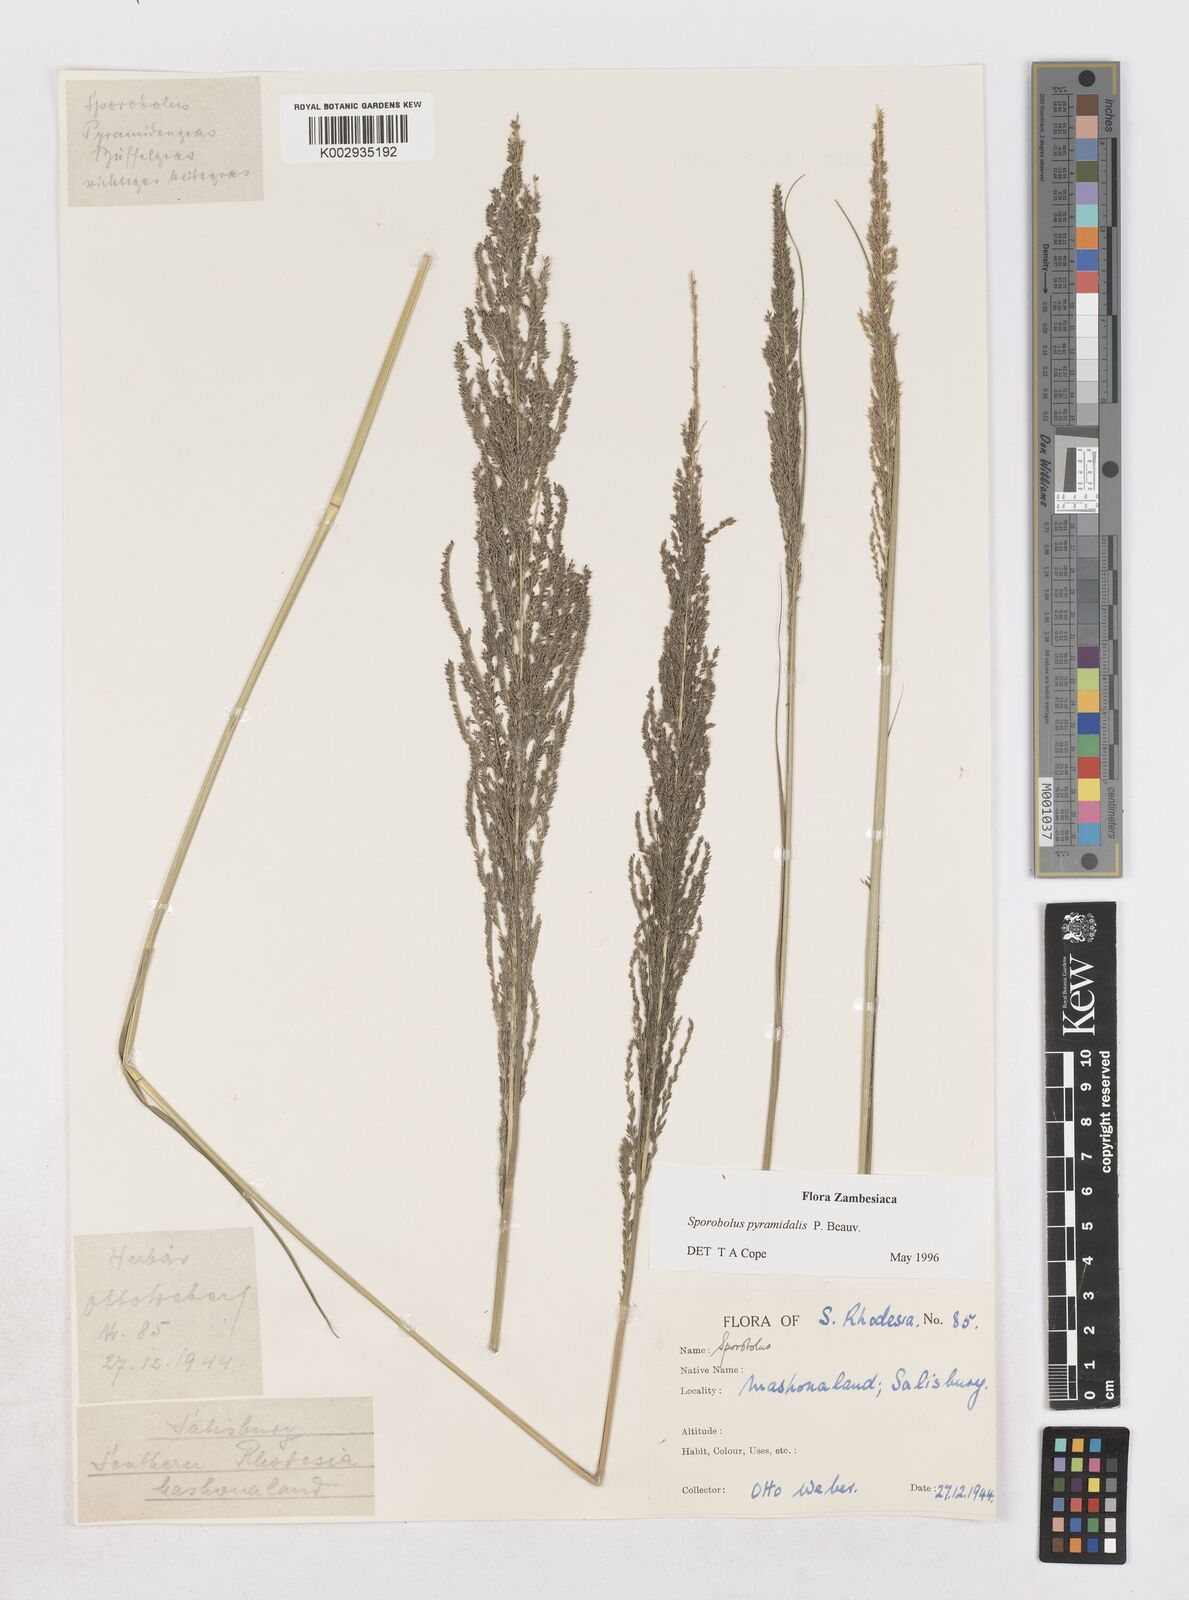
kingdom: Plantae
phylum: Tracheophyta
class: Liliopsida
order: Poales
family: Poaceae
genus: Sporobolus
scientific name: Sporobolus pyramidalis
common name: West indian dropseed
